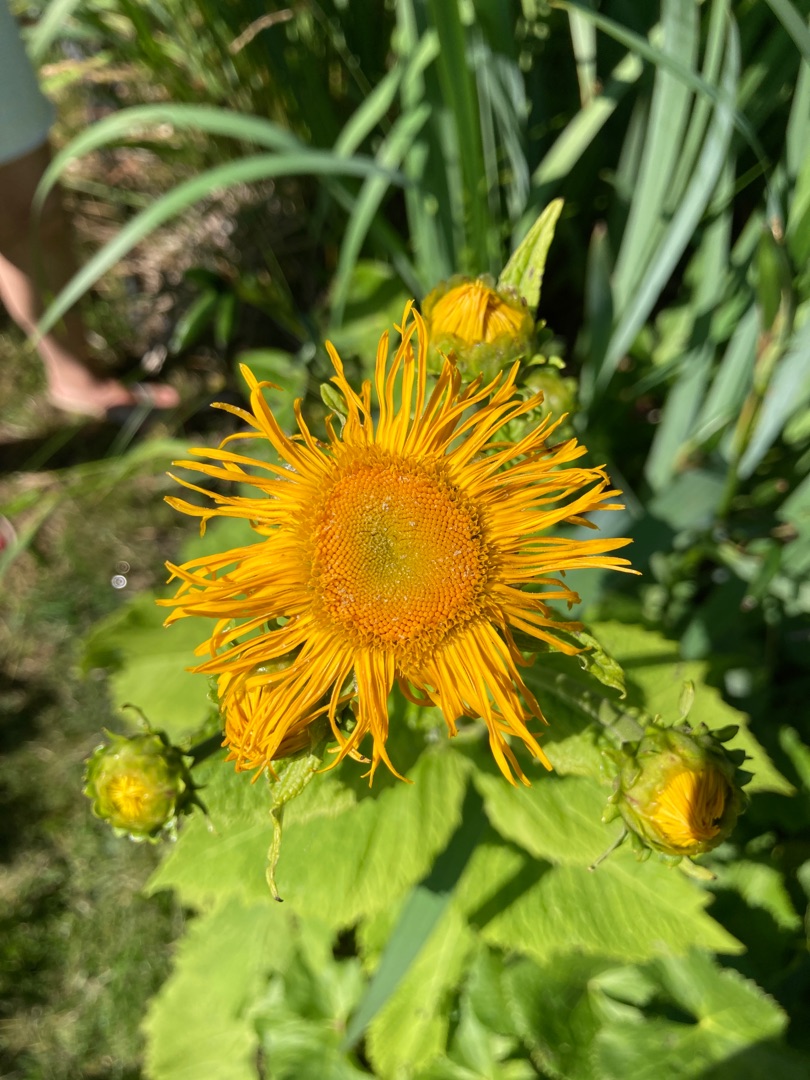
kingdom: Plantae
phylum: Tracheophyta
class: Magnoliopsida
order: Asterales
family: Asteraceae
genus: Telekia
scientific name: Telekia speciosa
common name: Tusindstråle
